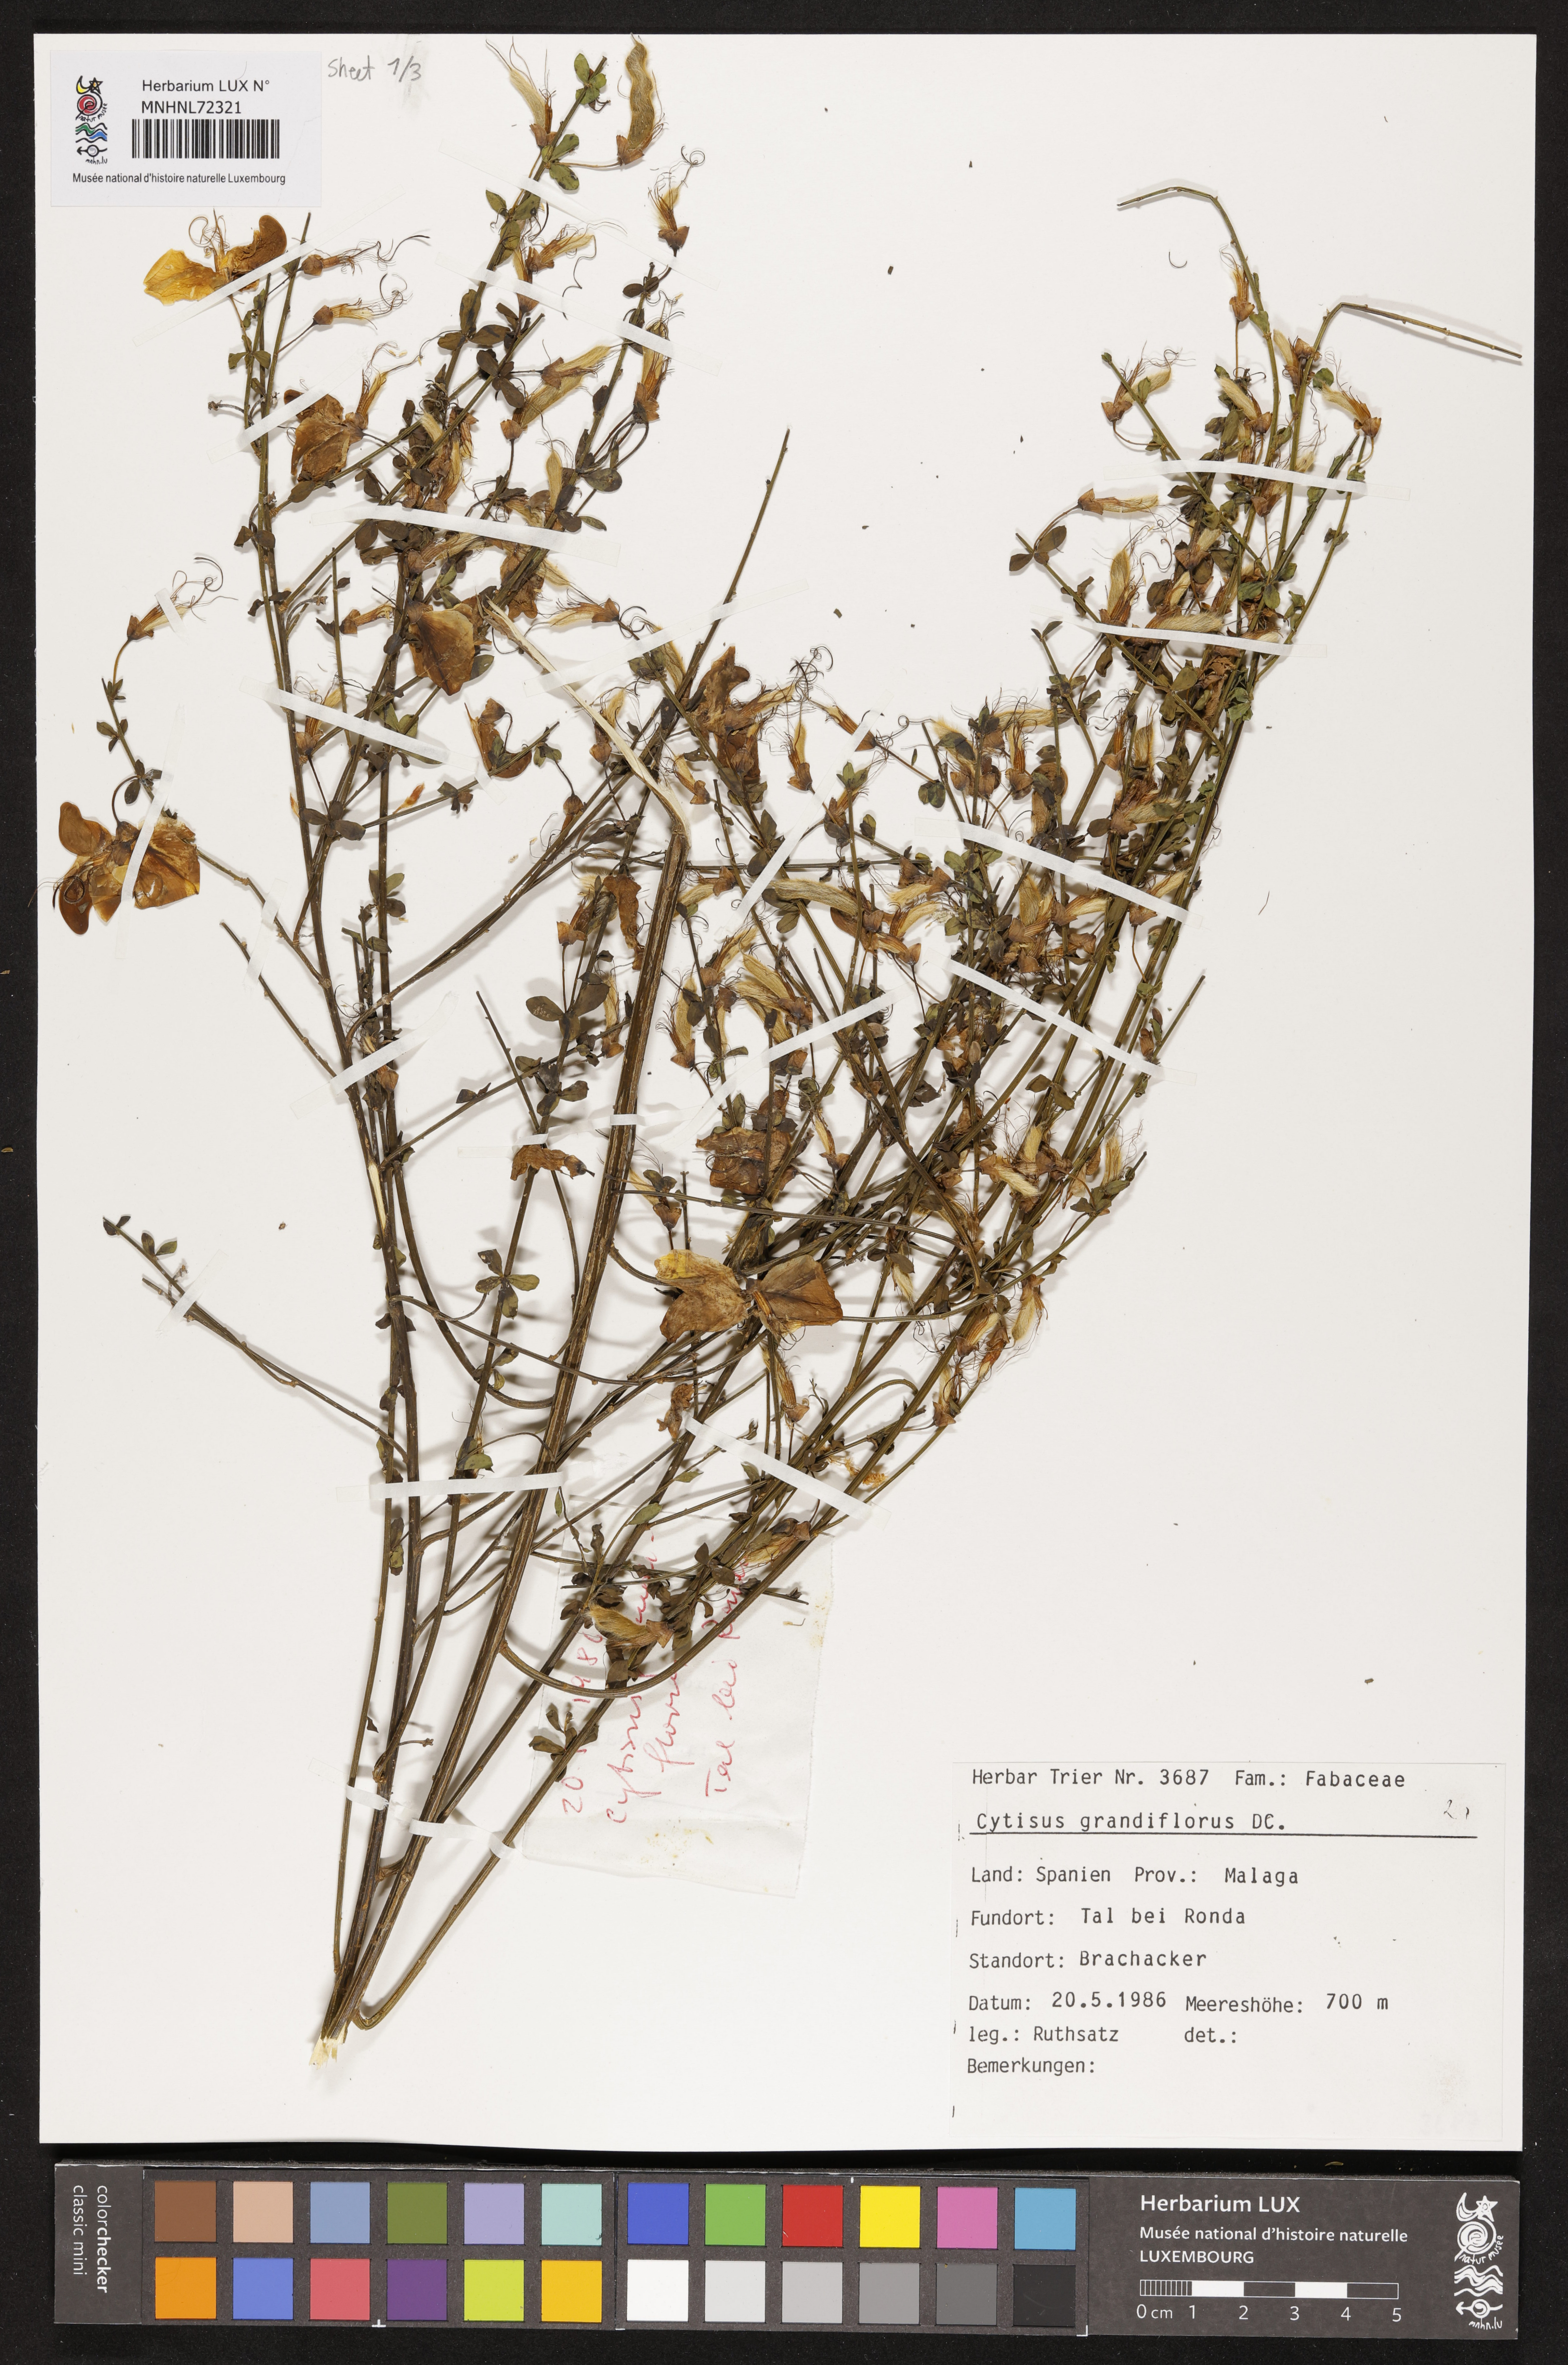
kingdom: Plantae
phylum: Tracheophyta
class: Magnoliopsida
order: Fabales
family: Fabaceae
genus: Cytisus
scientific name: Cytisus grandiflorus
